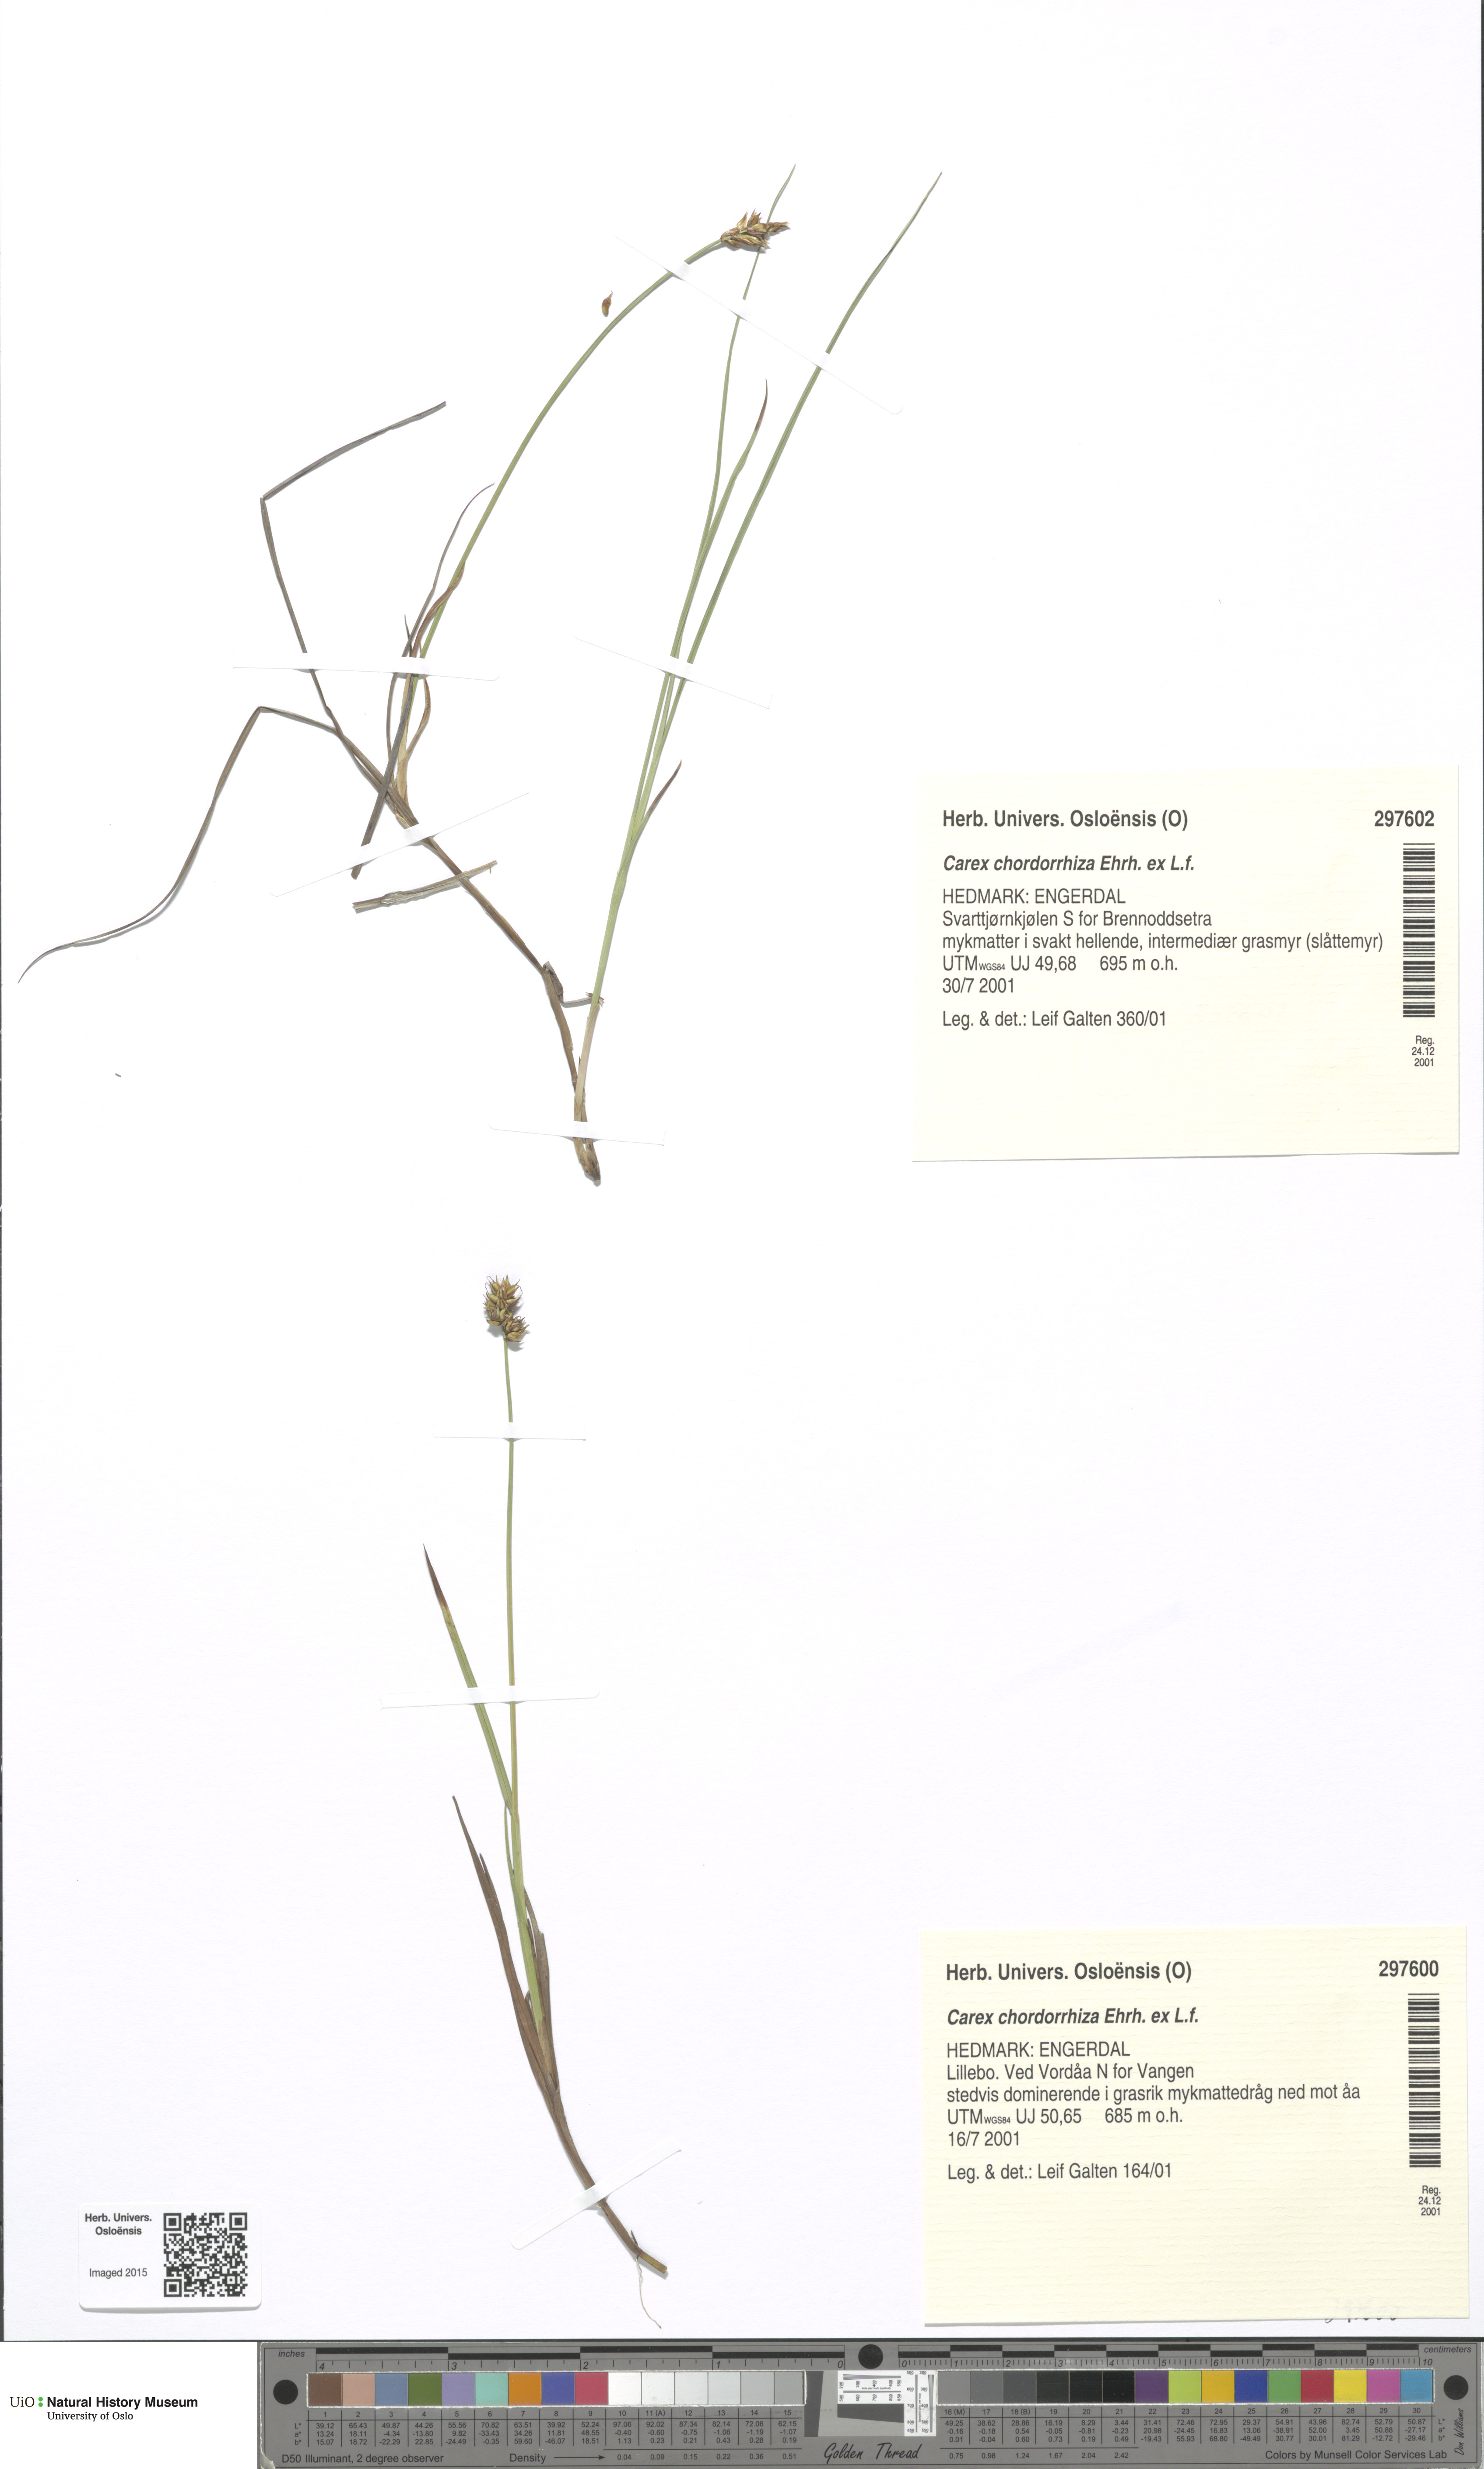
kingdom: Plantae
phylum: Tracheophyta
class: Liliopsida
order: Poales
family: Cyperaceae
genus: Carex
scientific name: Carex chordorrhiza
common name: String sedge
